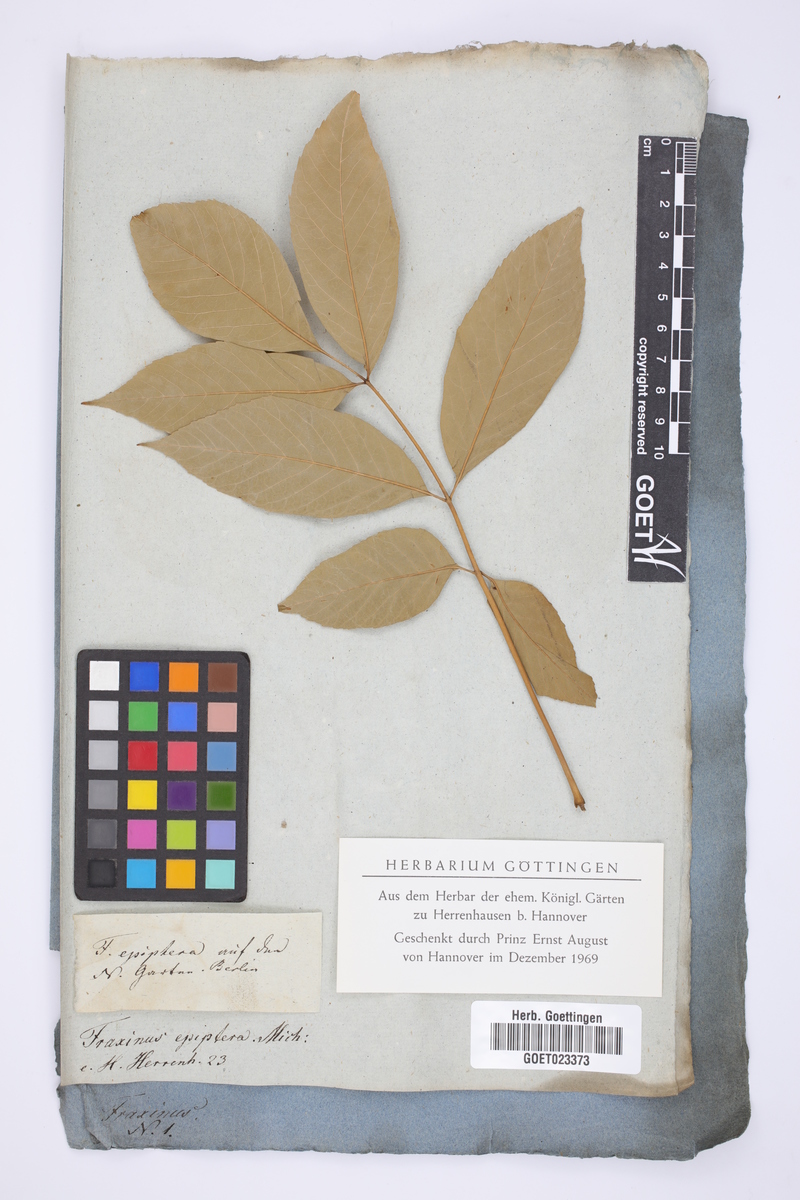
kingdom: Plantae
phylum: Tracheophyta
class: Magnoliopsida
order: Lamiales
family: Oleaceae
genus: Fraxinus
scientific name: Fraxinus americana
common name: White ash
